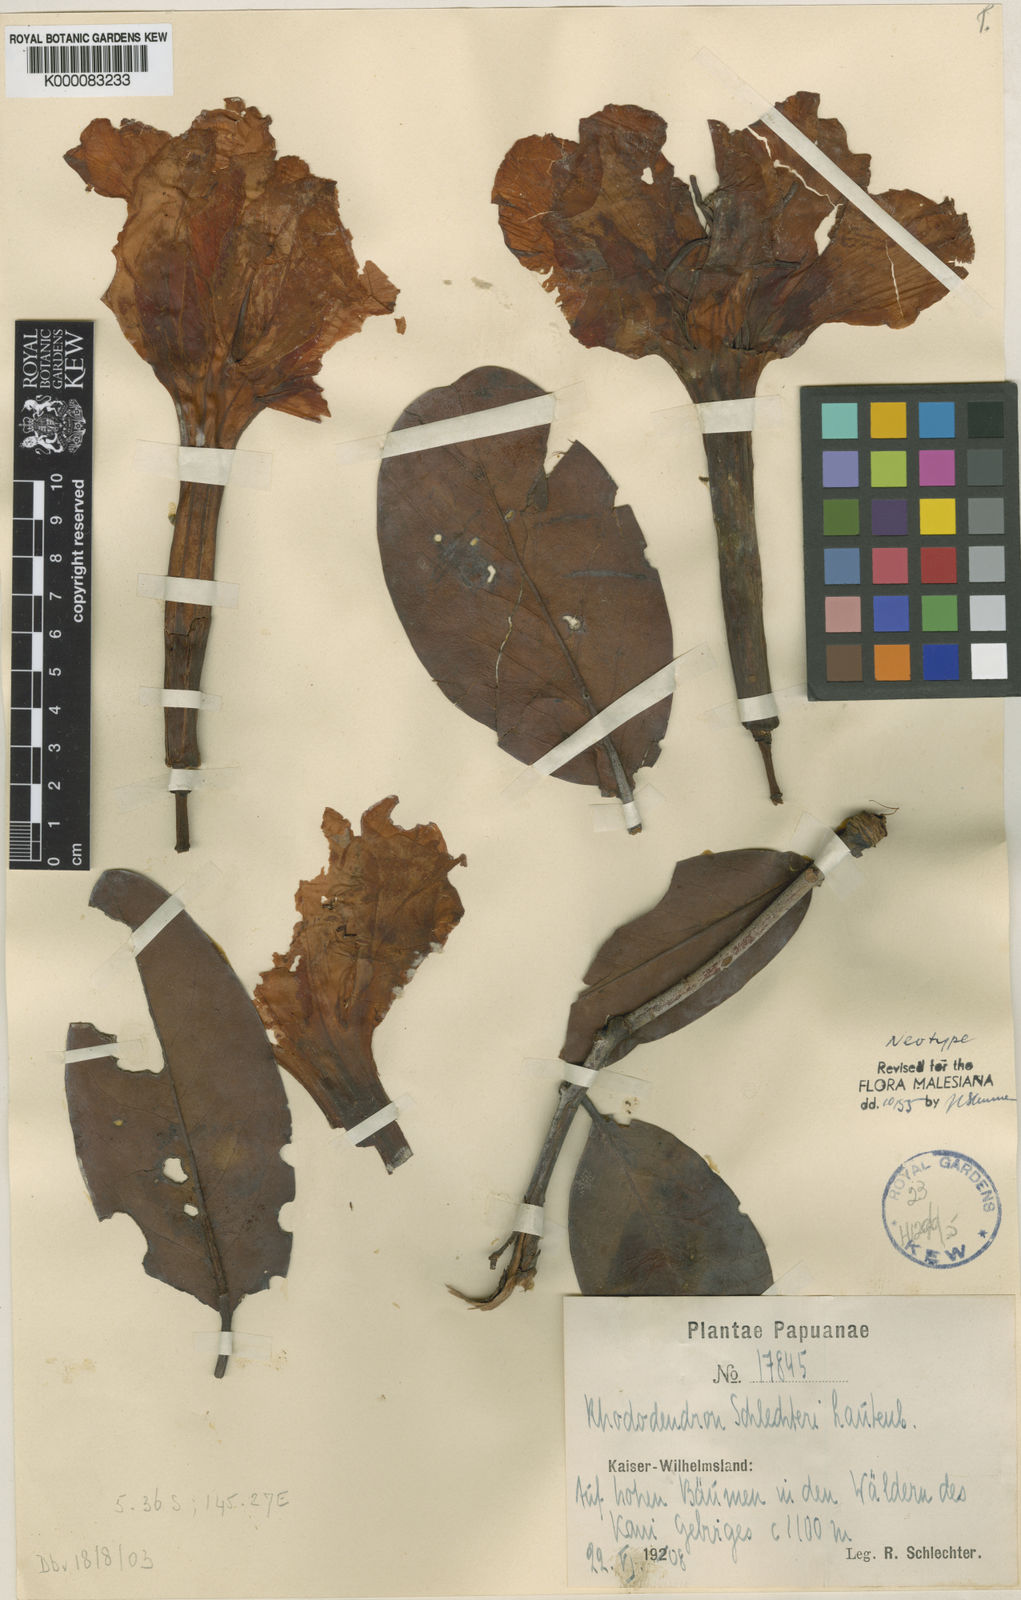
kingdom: Plantae
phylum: Tracheophyta
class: Magnoliopsida
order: Ericales
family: Ericaceae
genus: Rhododendron
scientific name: Rhododendron schlechteri
